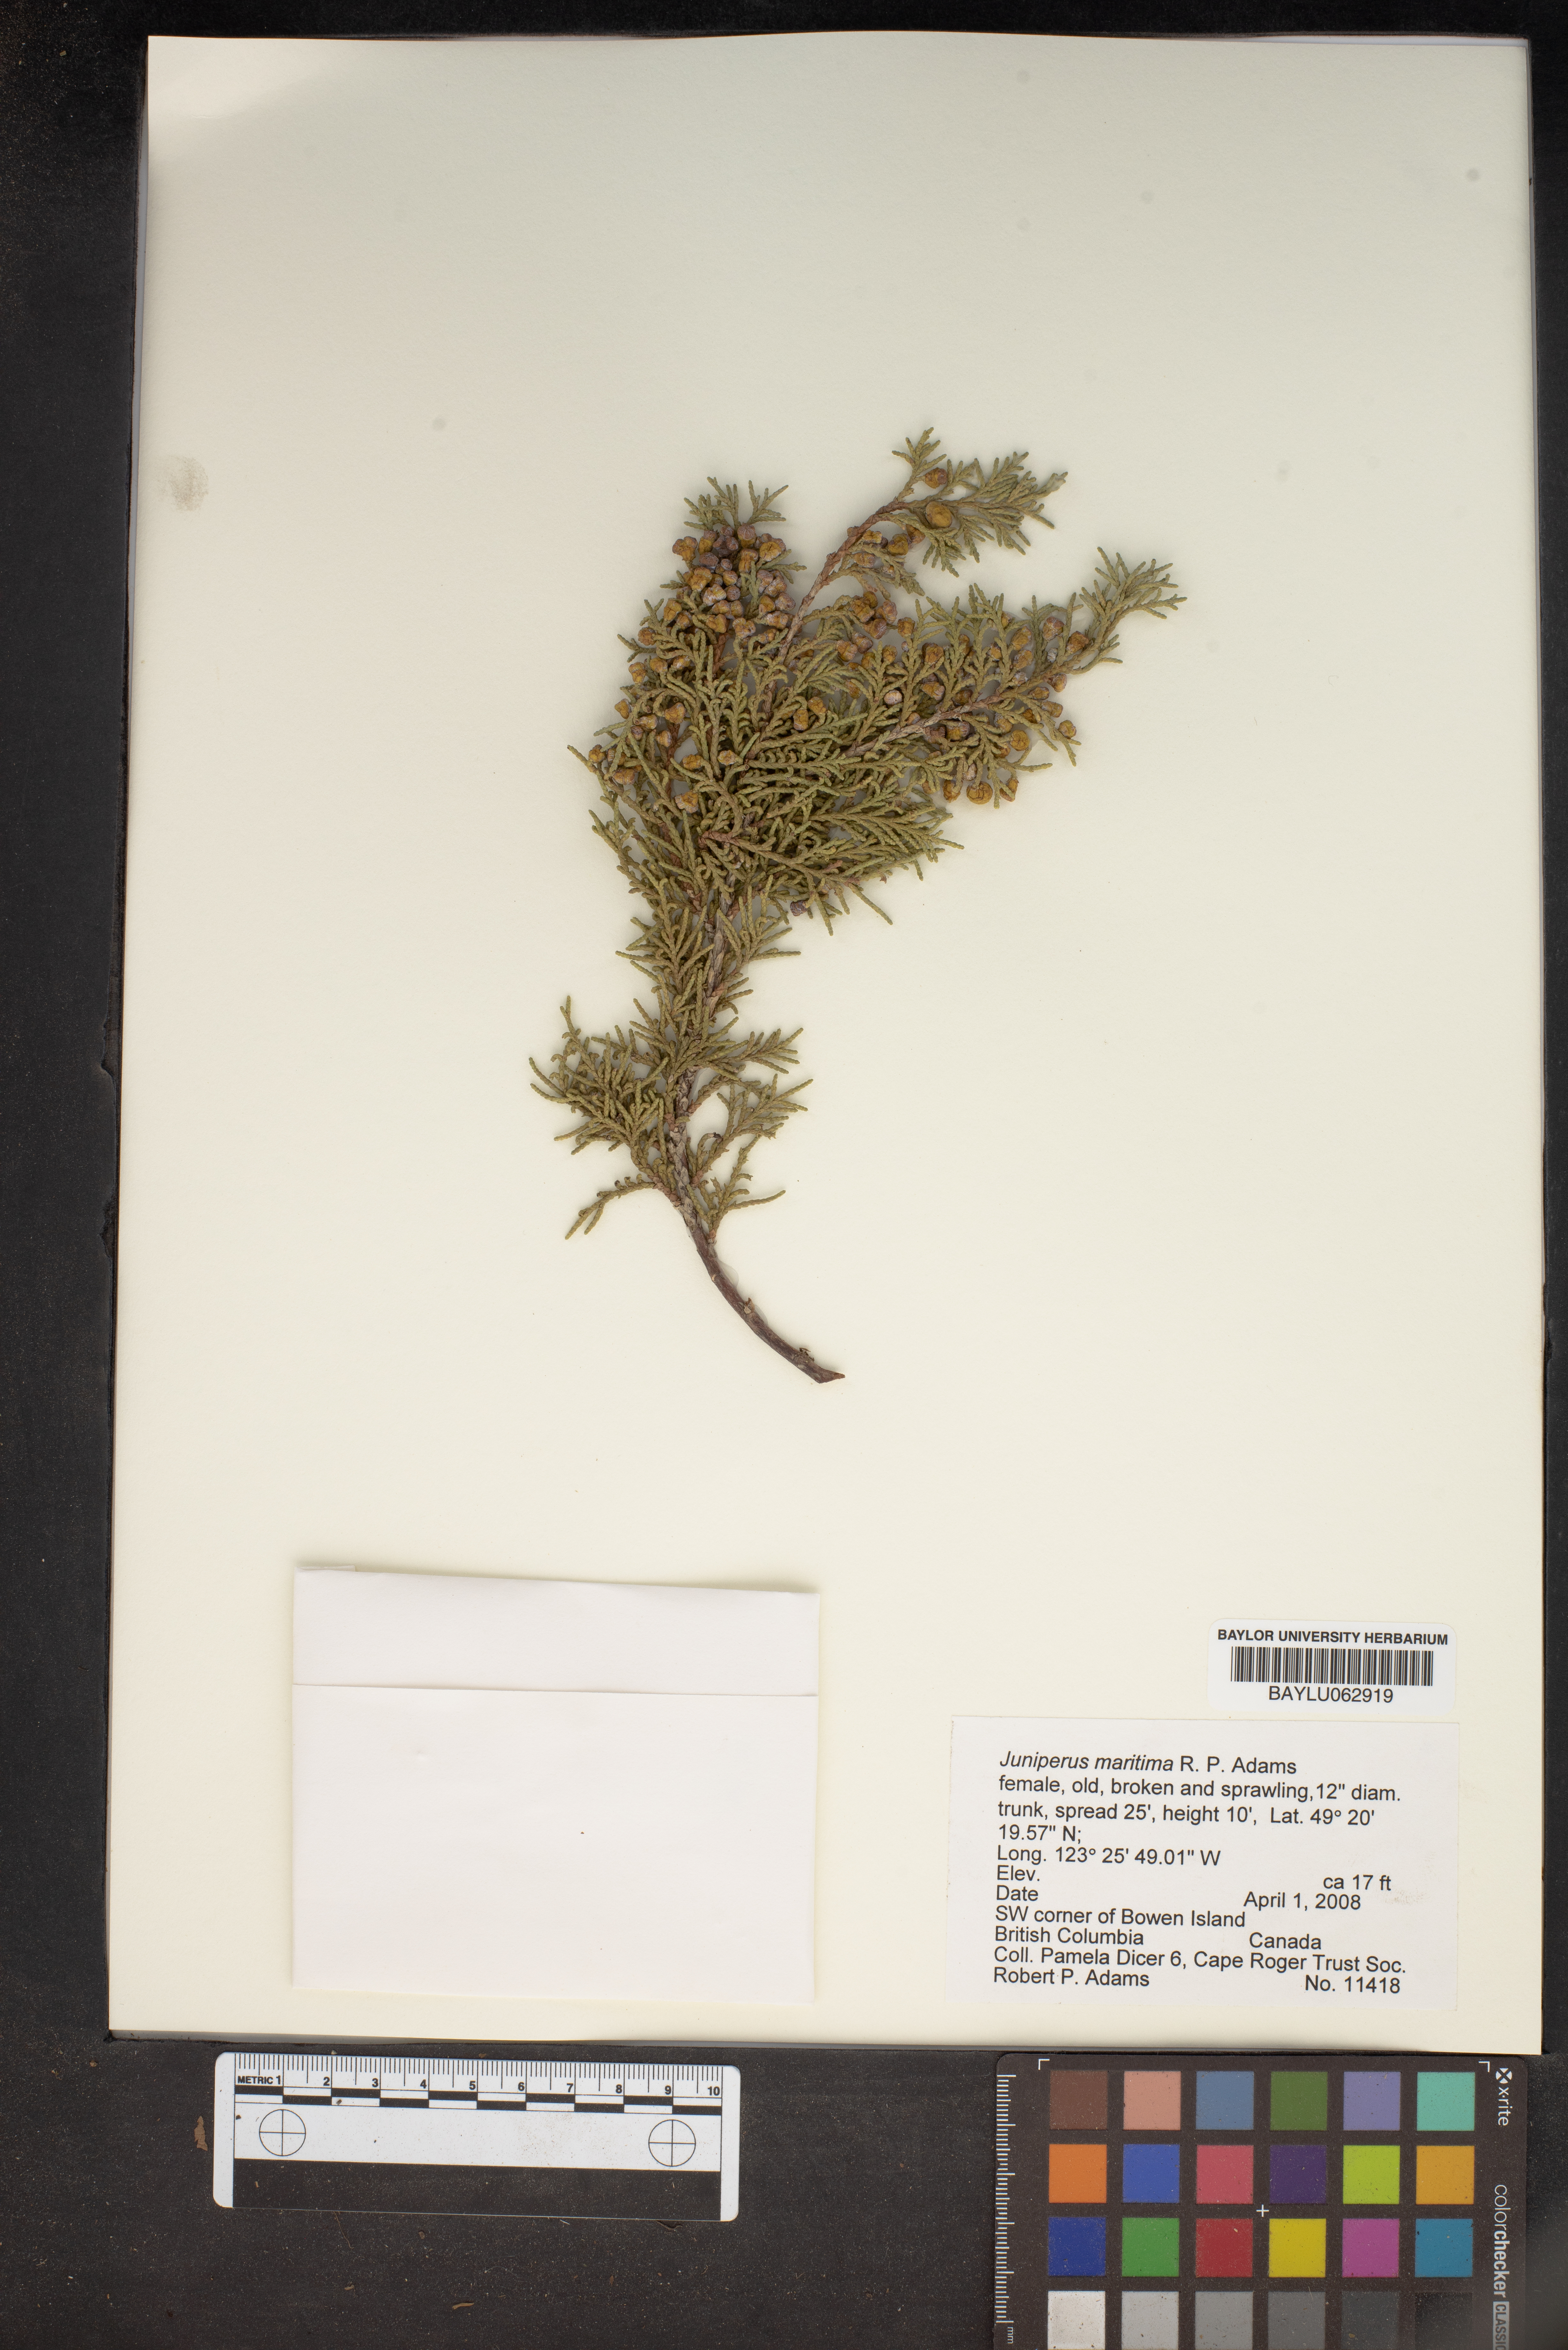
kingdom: Plantae
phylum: Tracheophyta
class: Pinopsida
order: Pinales
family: Cupressaceae
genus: Juniperus
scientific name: Juniperus scopulorum
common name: Rocky mountain juniper
